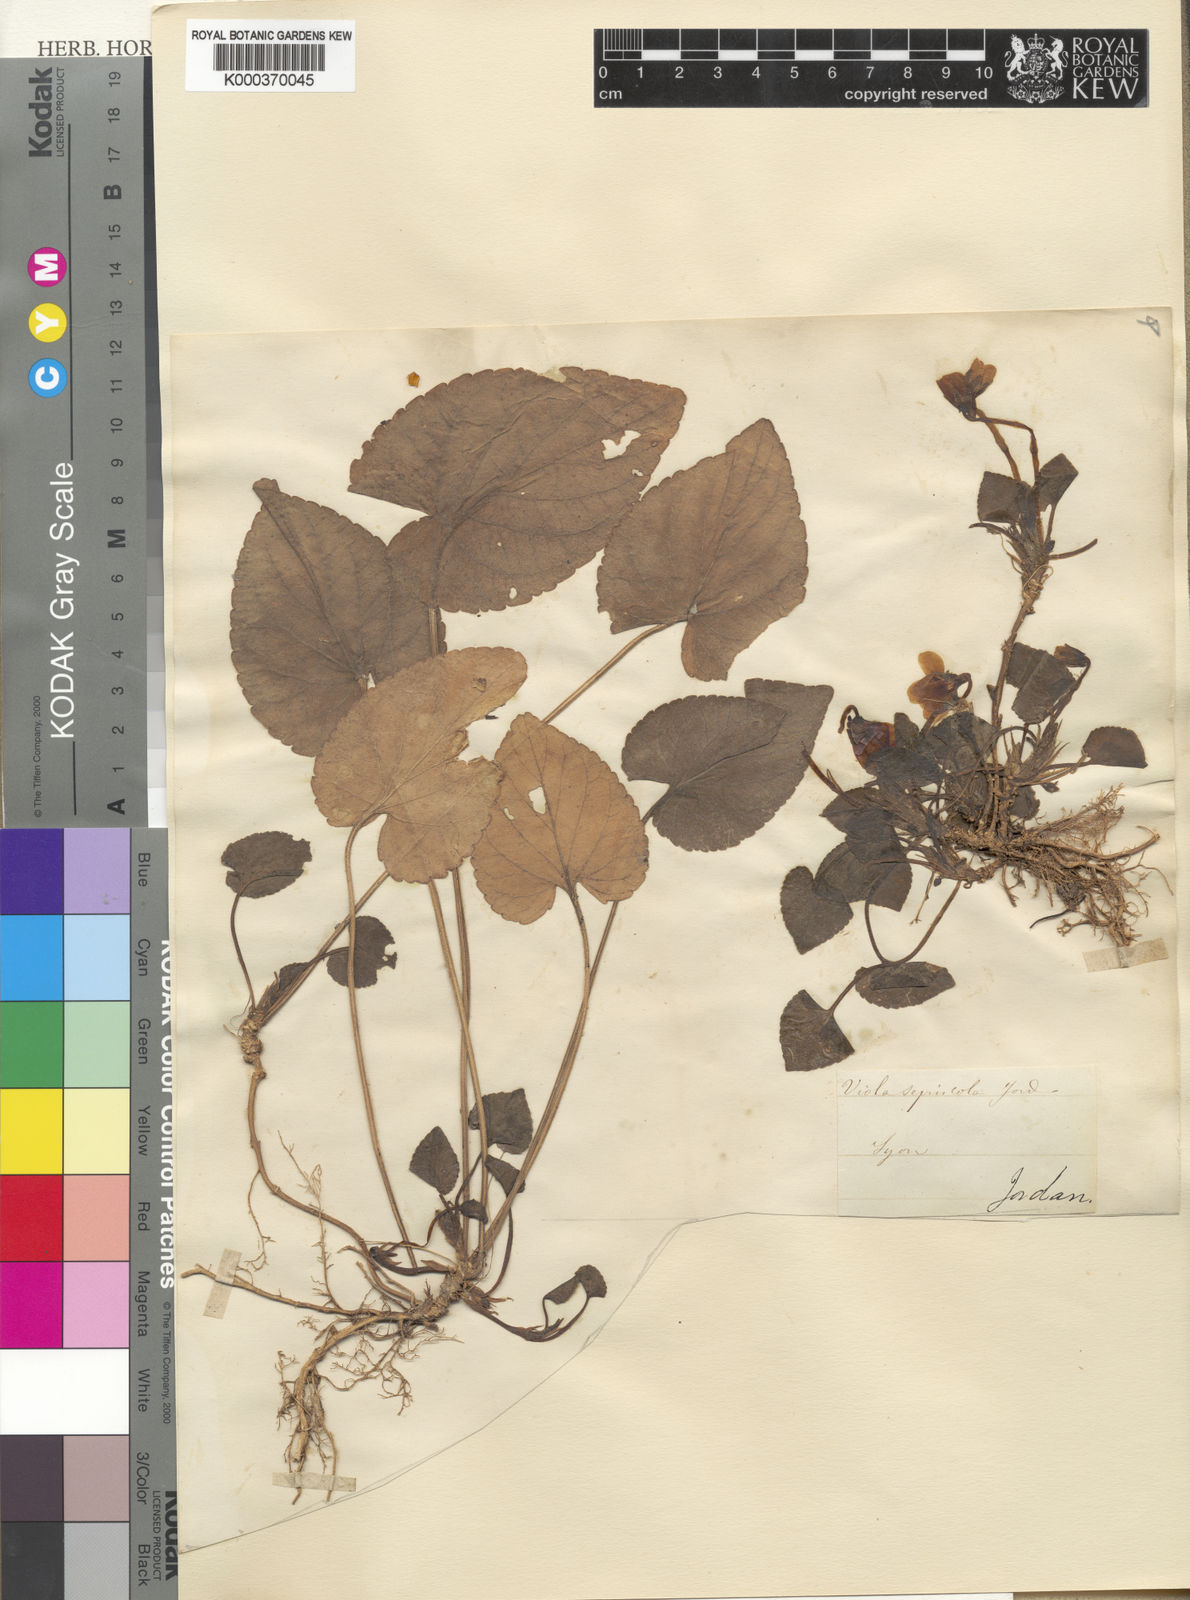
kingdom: Plantae
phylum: Tracheophyta
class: Magnoliopsida
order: Malpighiales
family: Violaceae
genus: Viola
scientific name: Viola suavis
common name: Russian violet
